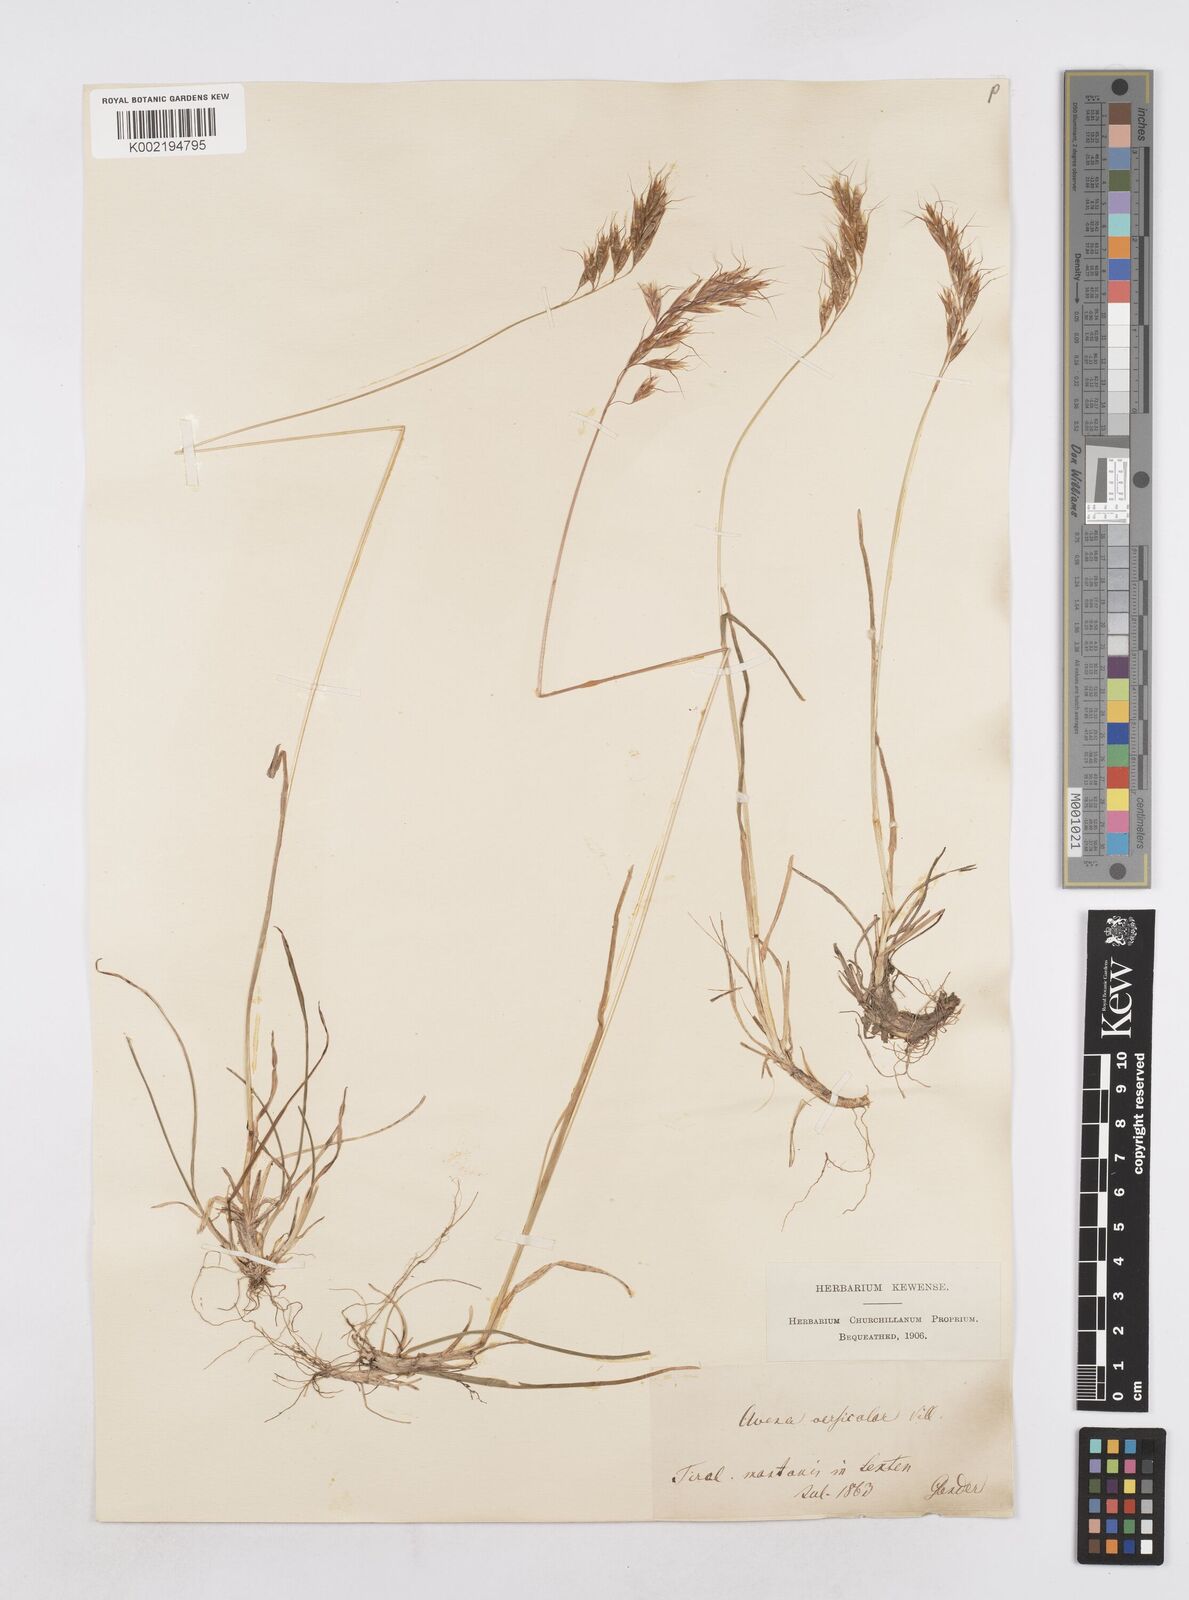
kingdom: Plantae
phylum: Tracheophyta
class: Liliopsida
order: Poales
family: Poaceae
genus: Helictochloa
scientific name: Helictochloa versicolor
